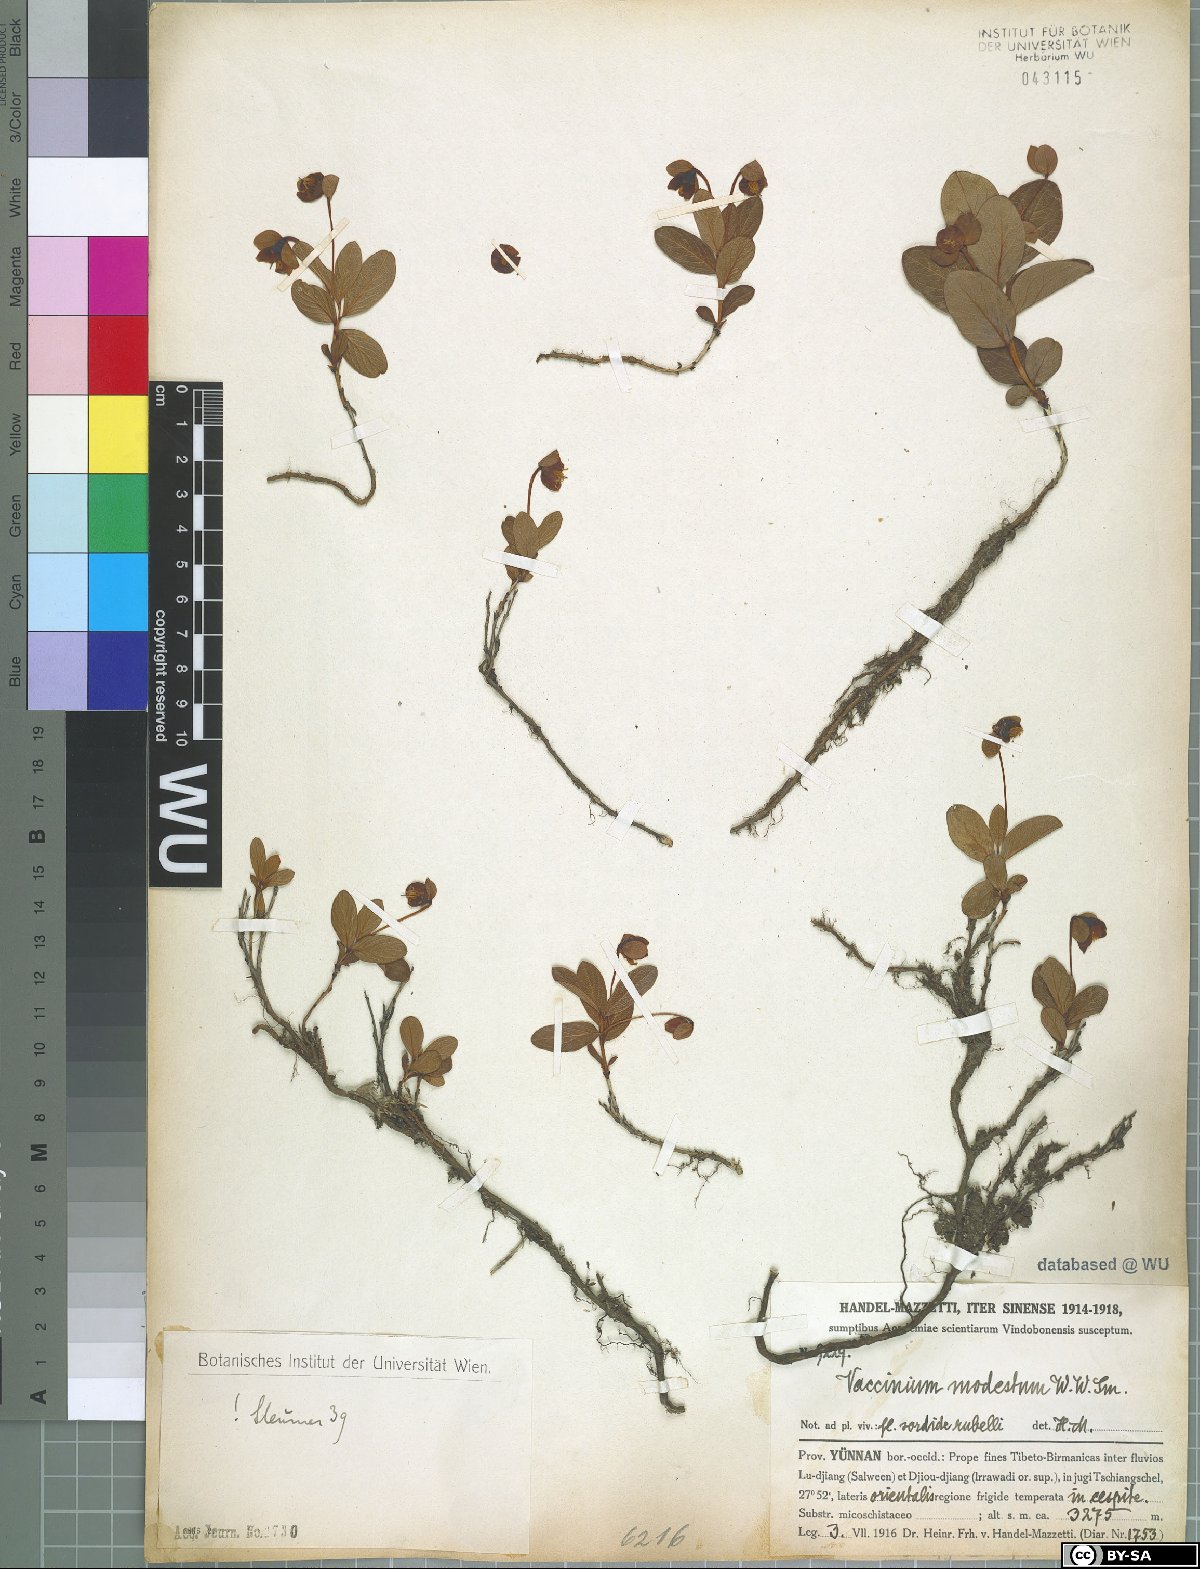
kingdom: Plantae
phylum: Tracheophyta
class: Magnoliopsida
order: Ericales
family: Ericaceae
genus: Vaccinium
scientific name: Vaccinium modestum
